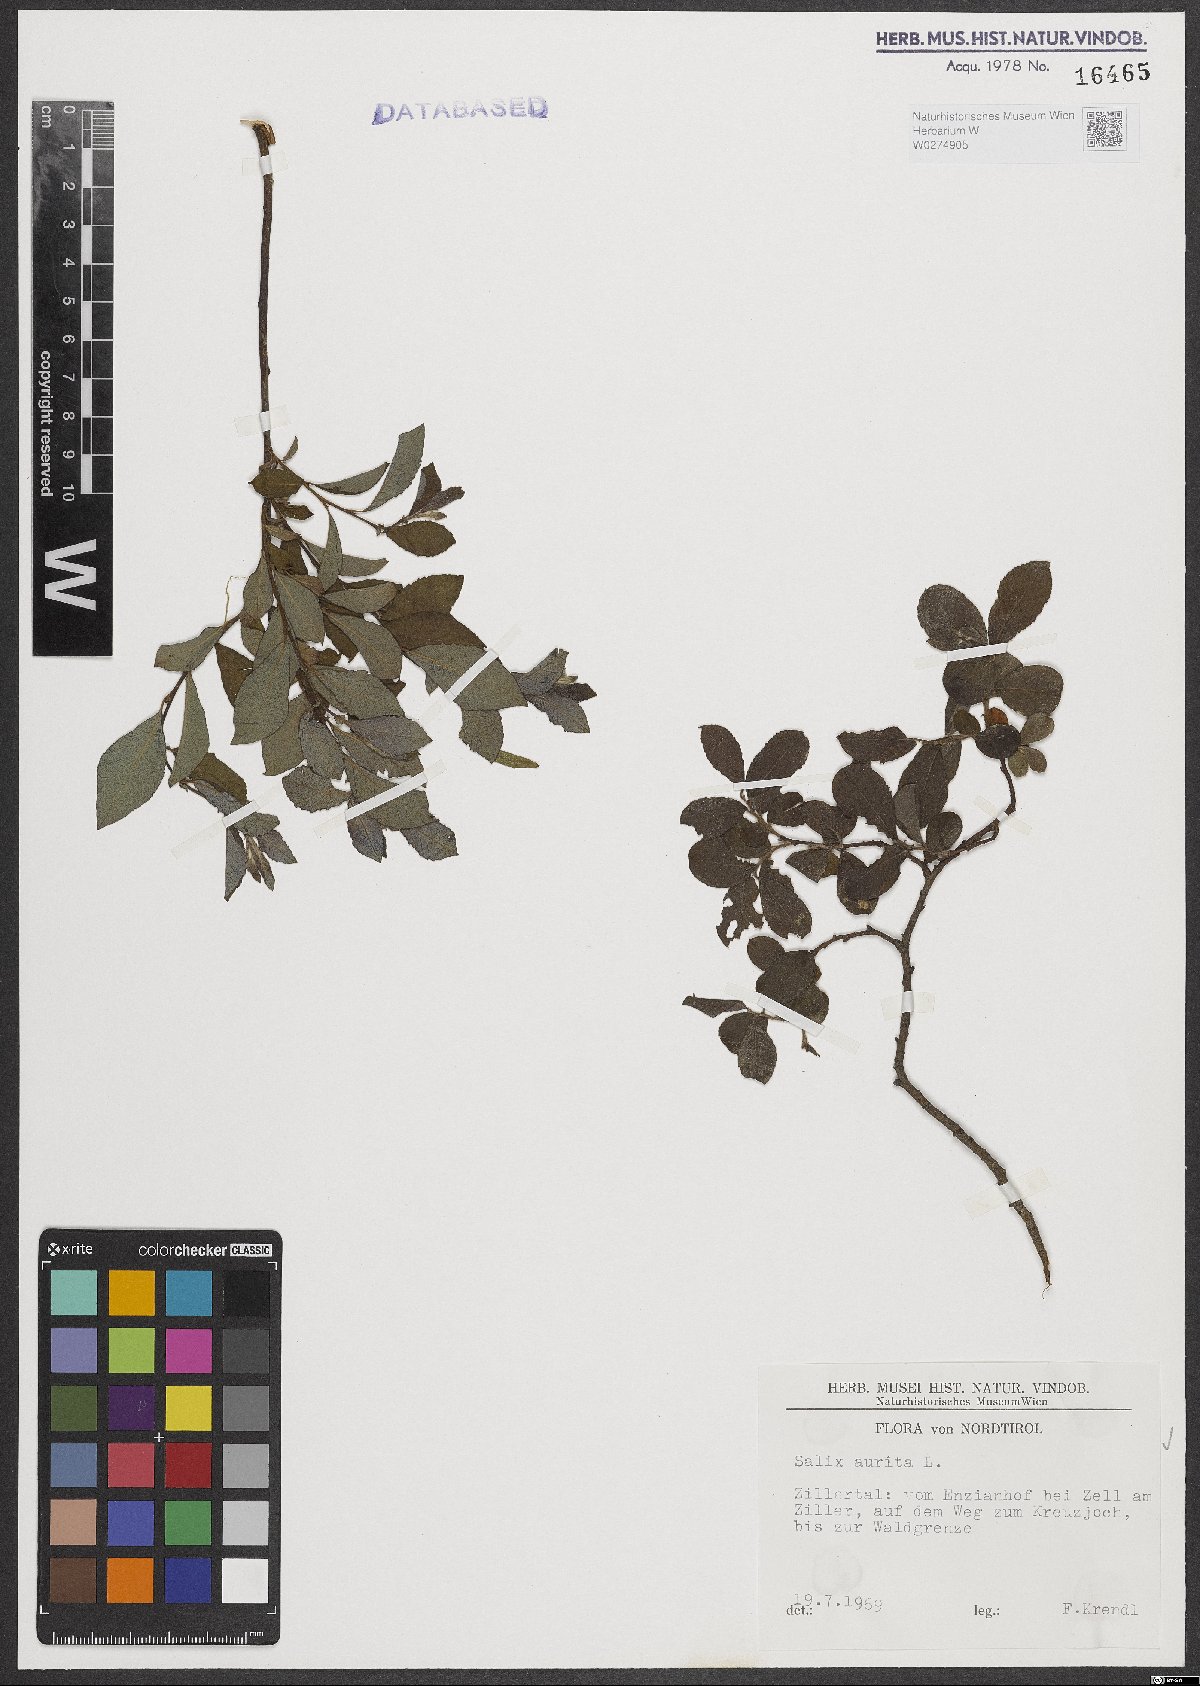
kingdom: Plantae
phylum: Tracheophyta
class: Magnoliopsida
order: Malpighiales
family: Salicaceae
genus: Salix
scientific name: Salix aurita
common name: Eared willow
